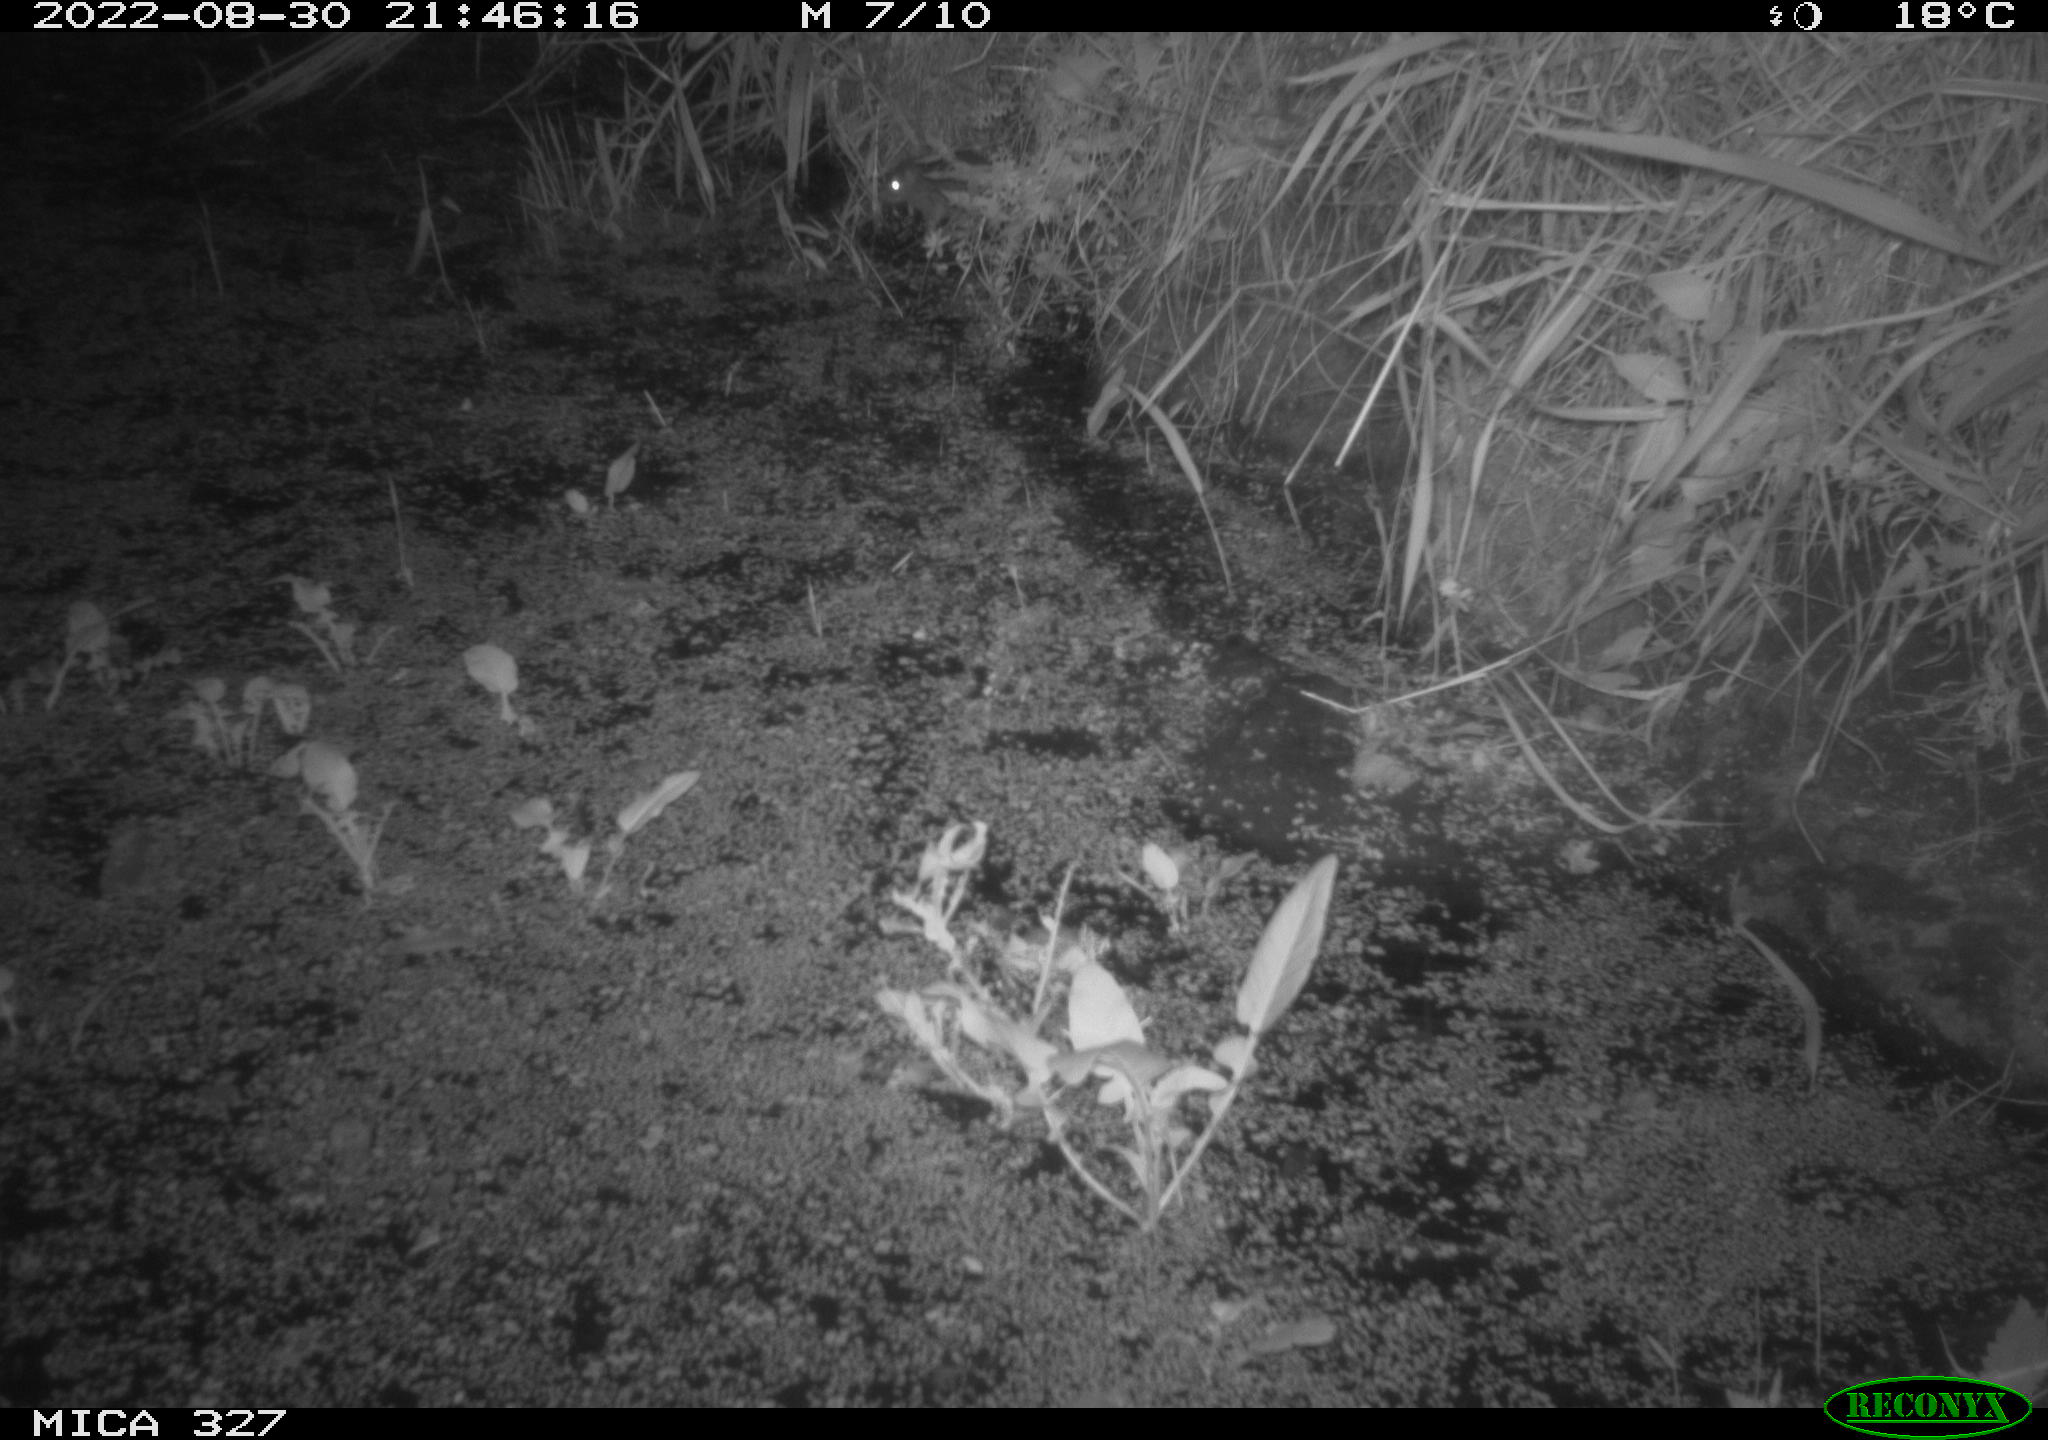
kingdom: Animalia
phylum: Chordata
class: Mammalia
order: Rodentia
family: Muridae
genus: Rattus
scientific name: Rattus norvegicus
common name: Brown rat
